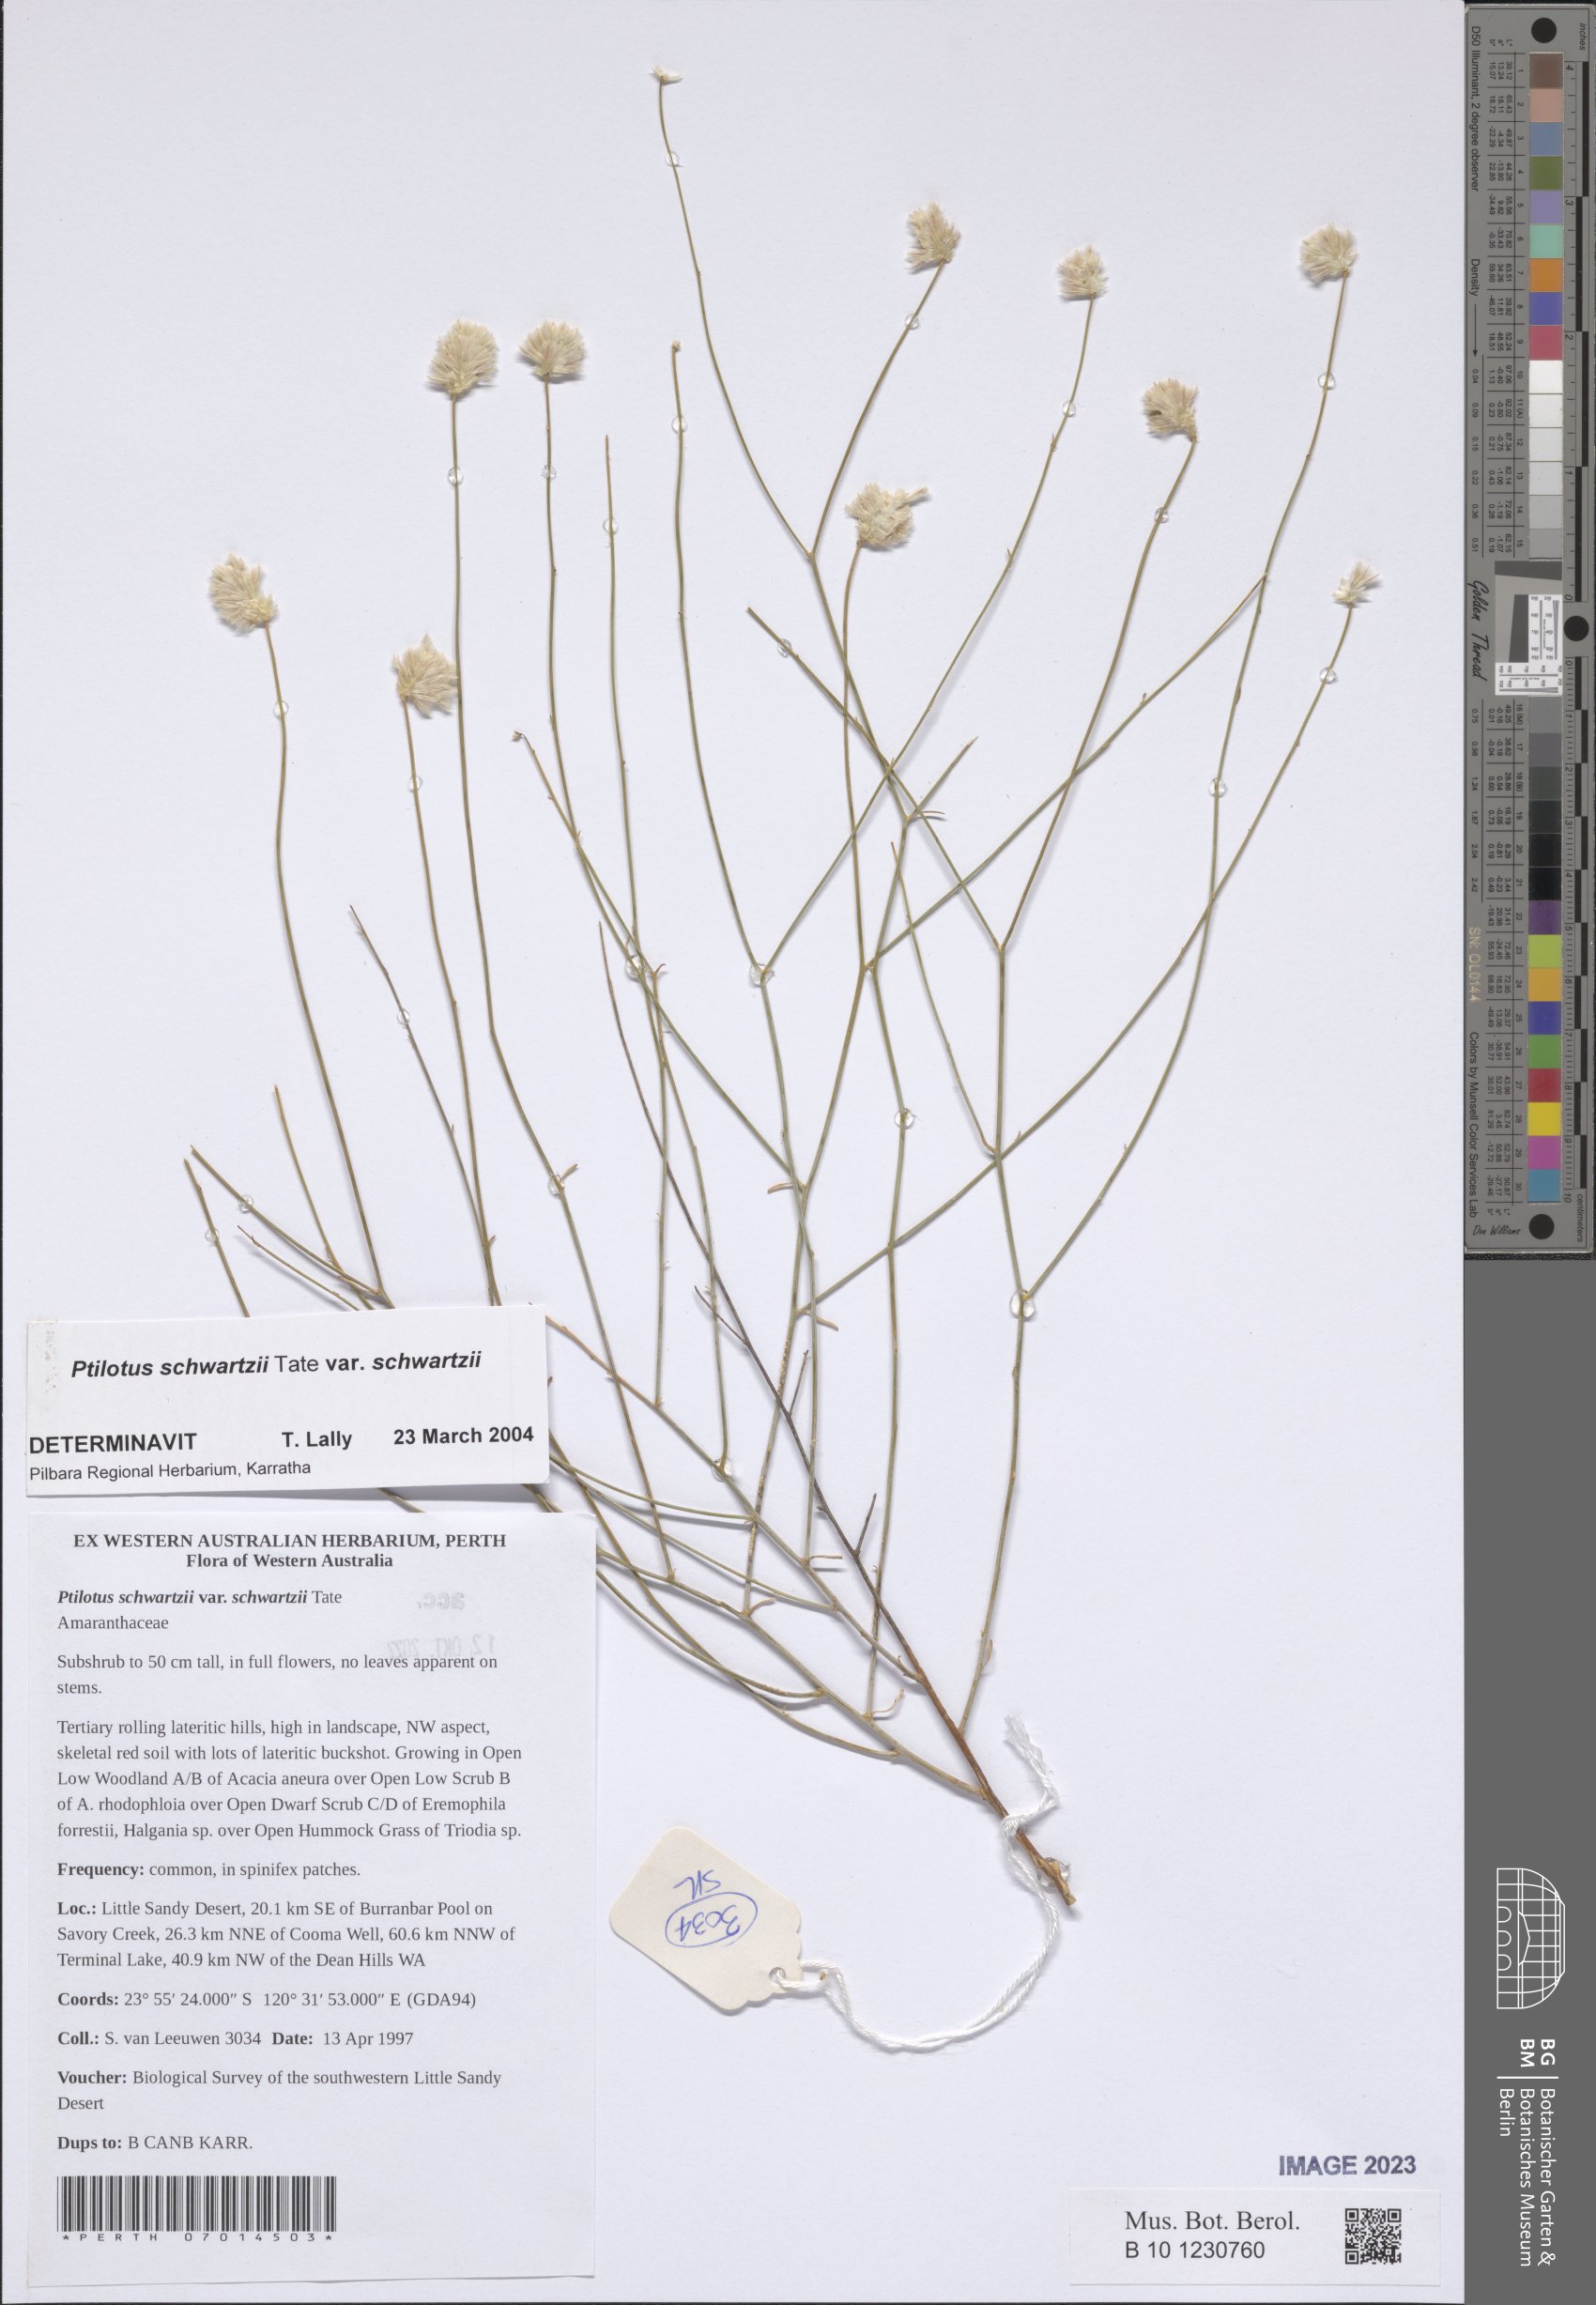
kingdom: Plantae
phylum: Tracheophyta
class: Magnoliopsida
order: Caryophyllales
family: Amaranthaceae
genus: Ptilotus
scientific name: Ptilotus schwartzii
